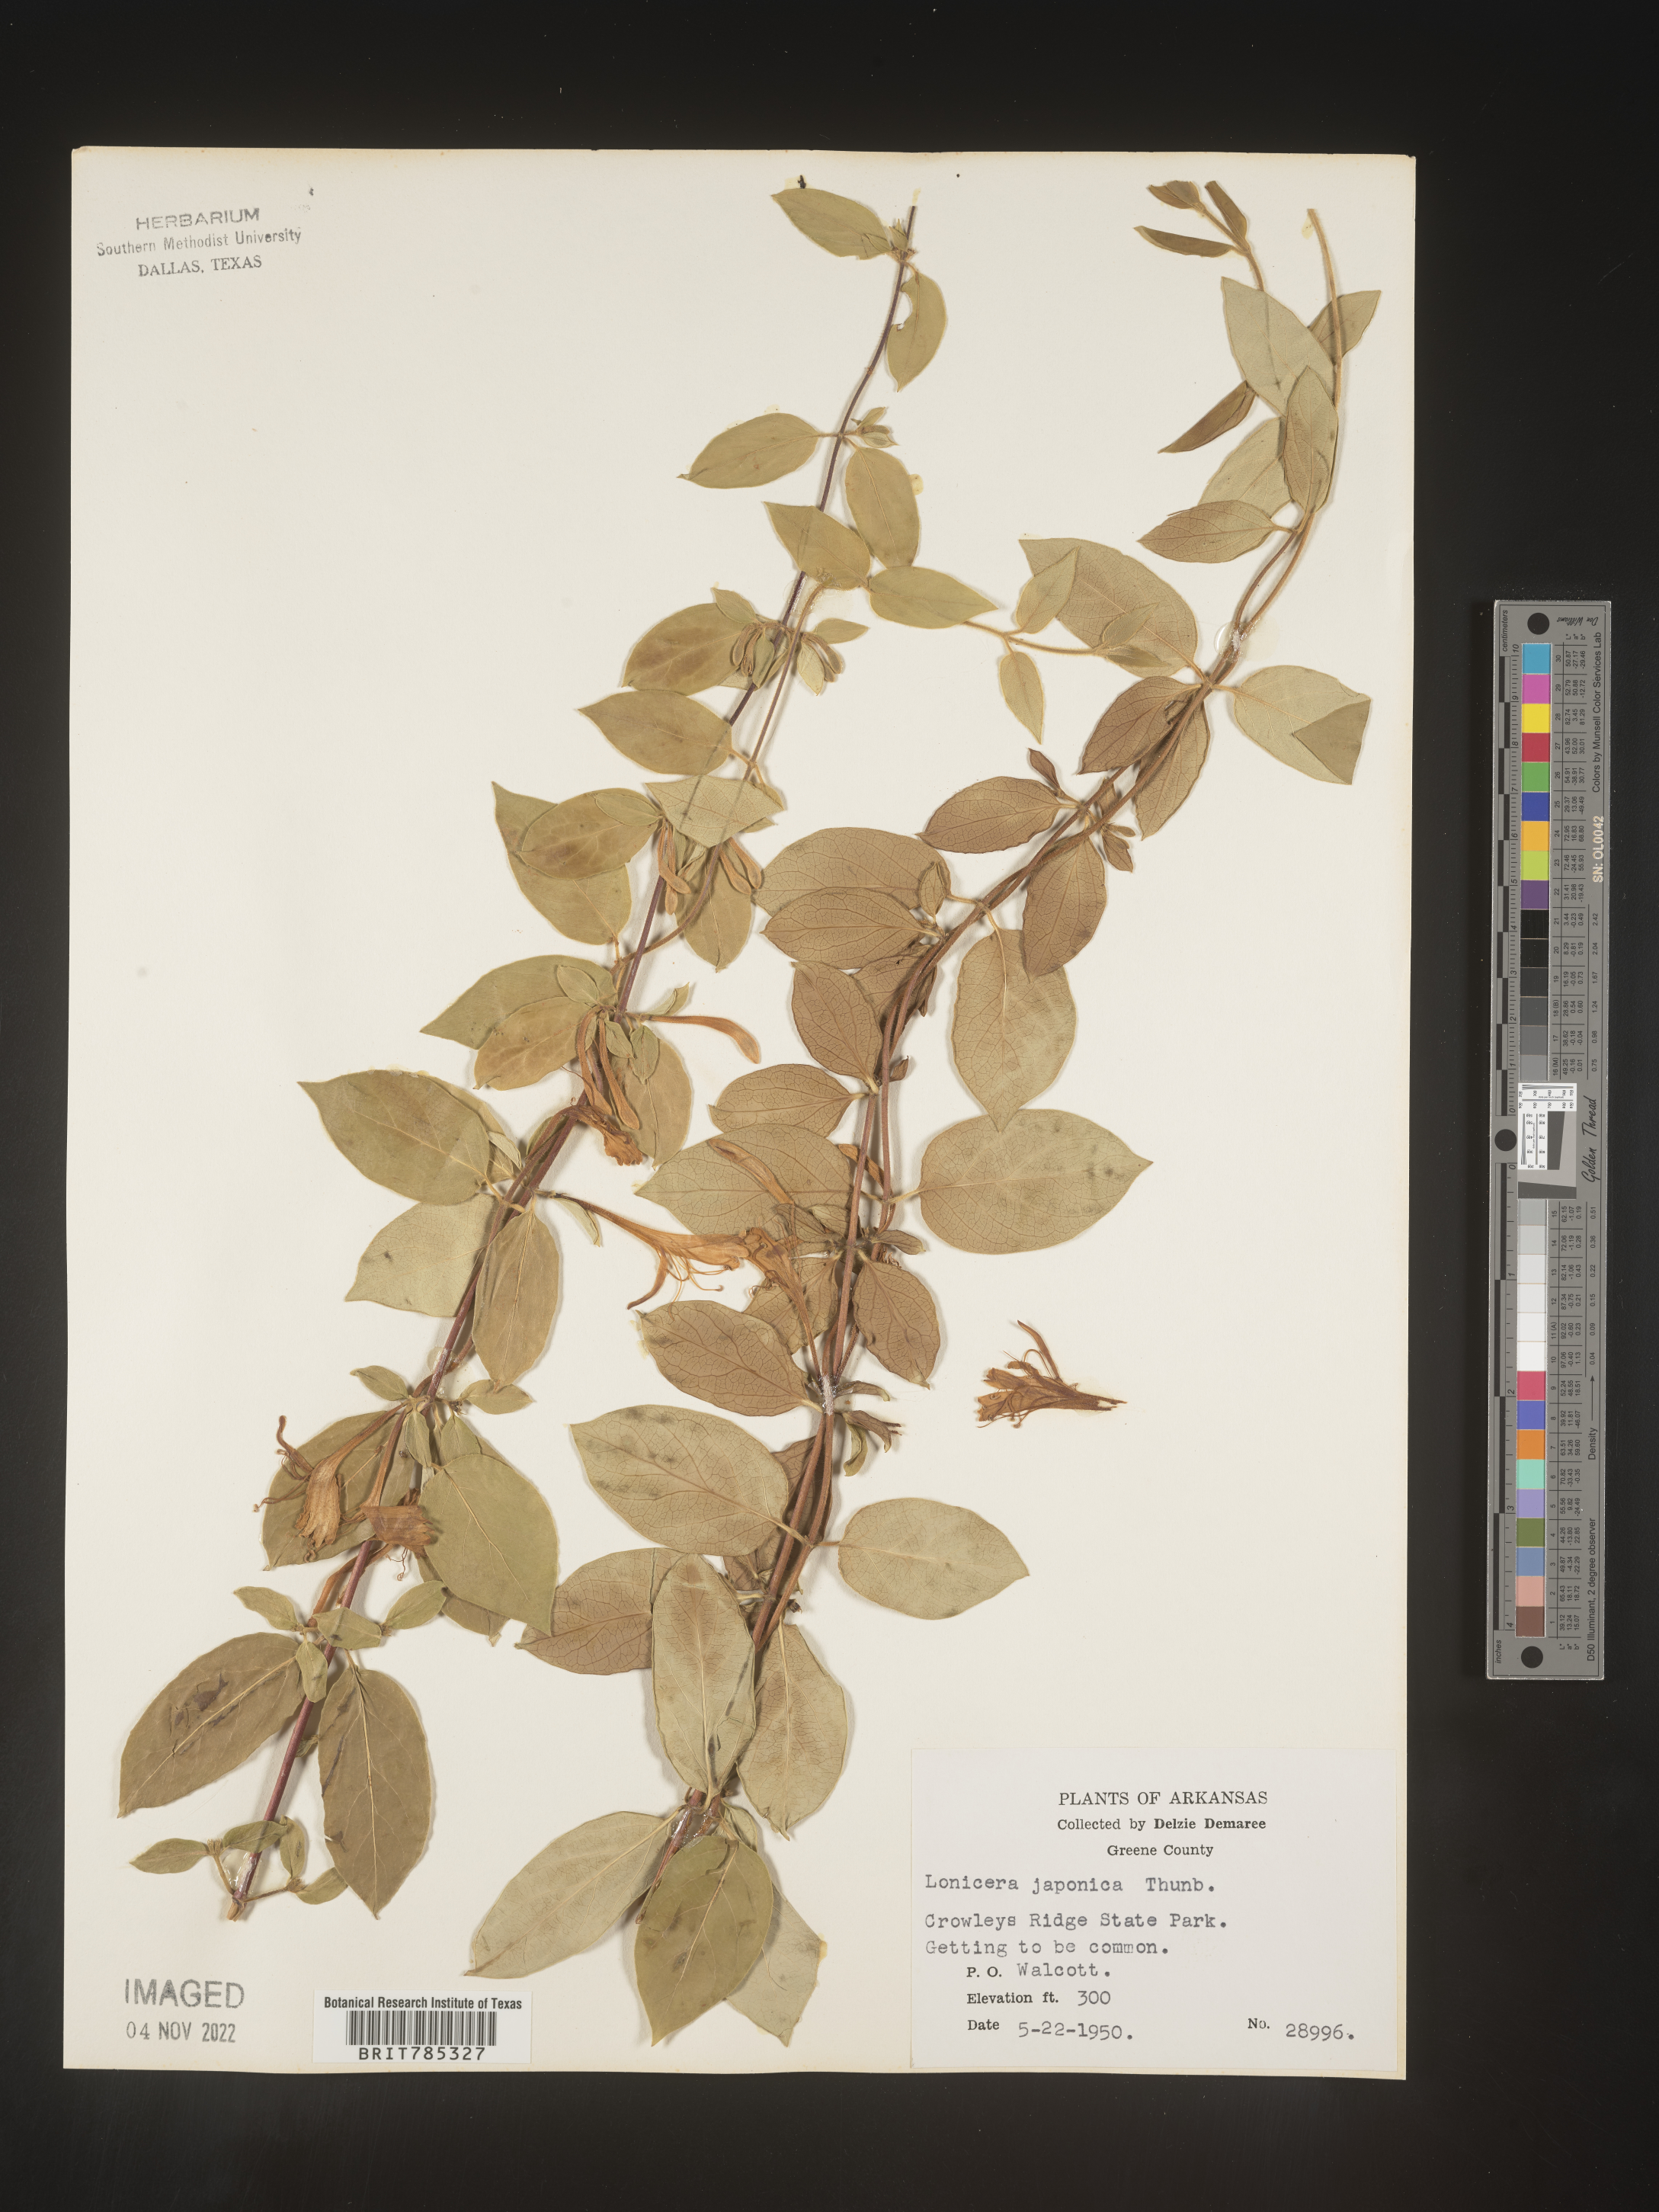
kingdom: Plantae
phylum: Tracheophyta
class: Magnoliopsida
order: Dipsacales
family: Caprifoliaceae
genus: Lonicera
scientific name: Lonicera japonica
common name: Japanese honeysuckle
